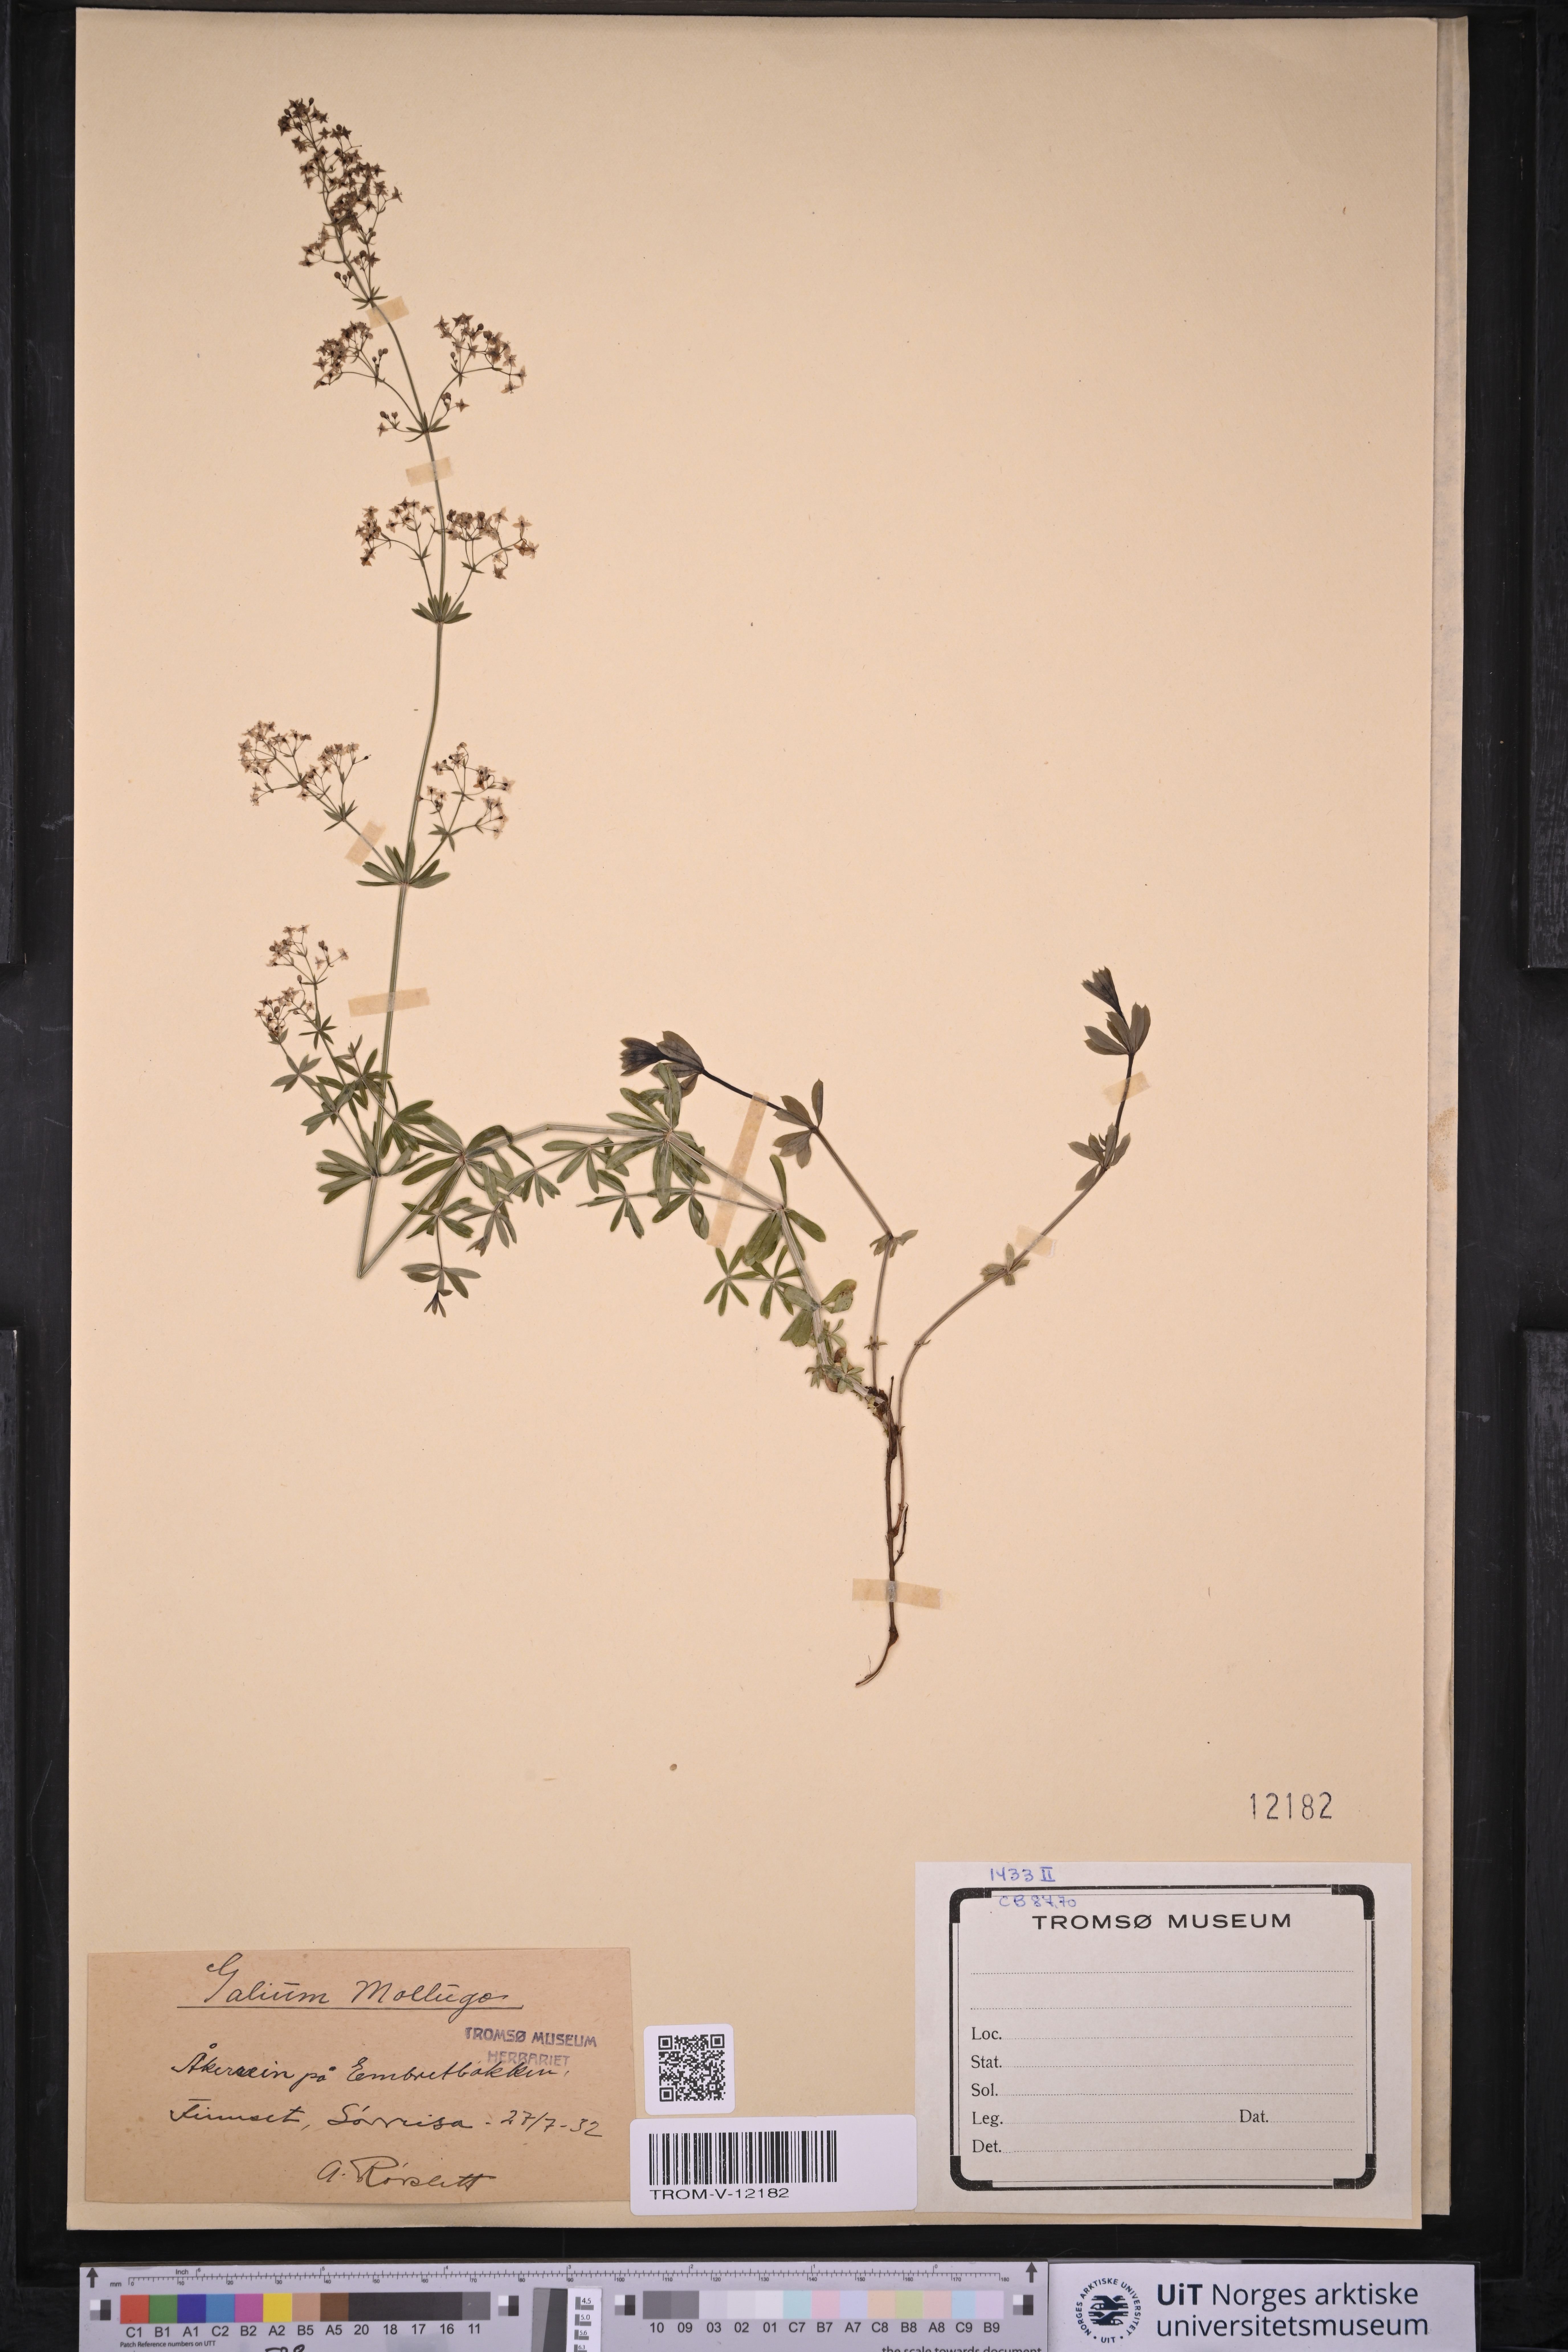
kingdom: Plantae
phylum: Tracheophyta
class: Magnoliopsida
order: Gentianales
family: Rubiaceae
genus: Galium
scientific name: Galium mollugo
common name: Hedge bedstraw
